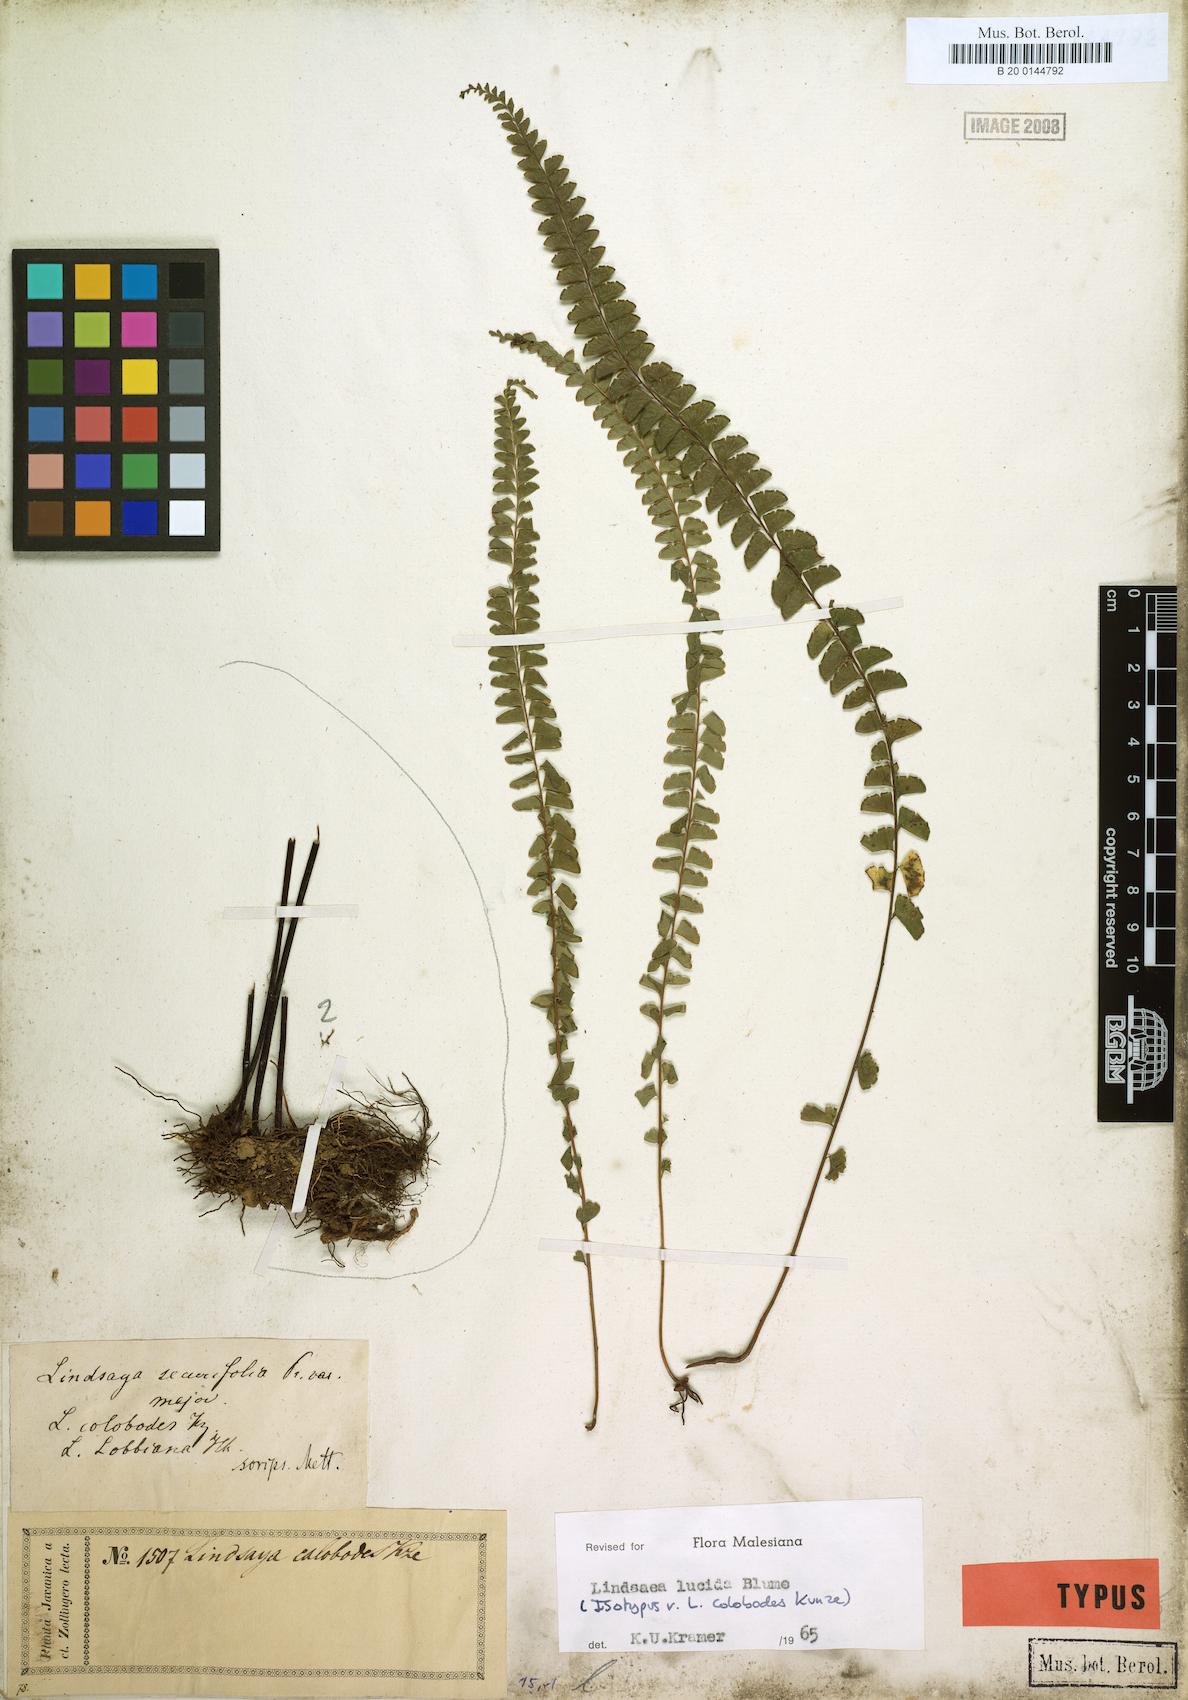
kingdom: Plantae
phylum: Tracheophyta
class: Polypodiopsida
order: Polypodiales
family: Lindsaeaceae
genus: Lindsaea
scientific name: Lindsaea lucida
